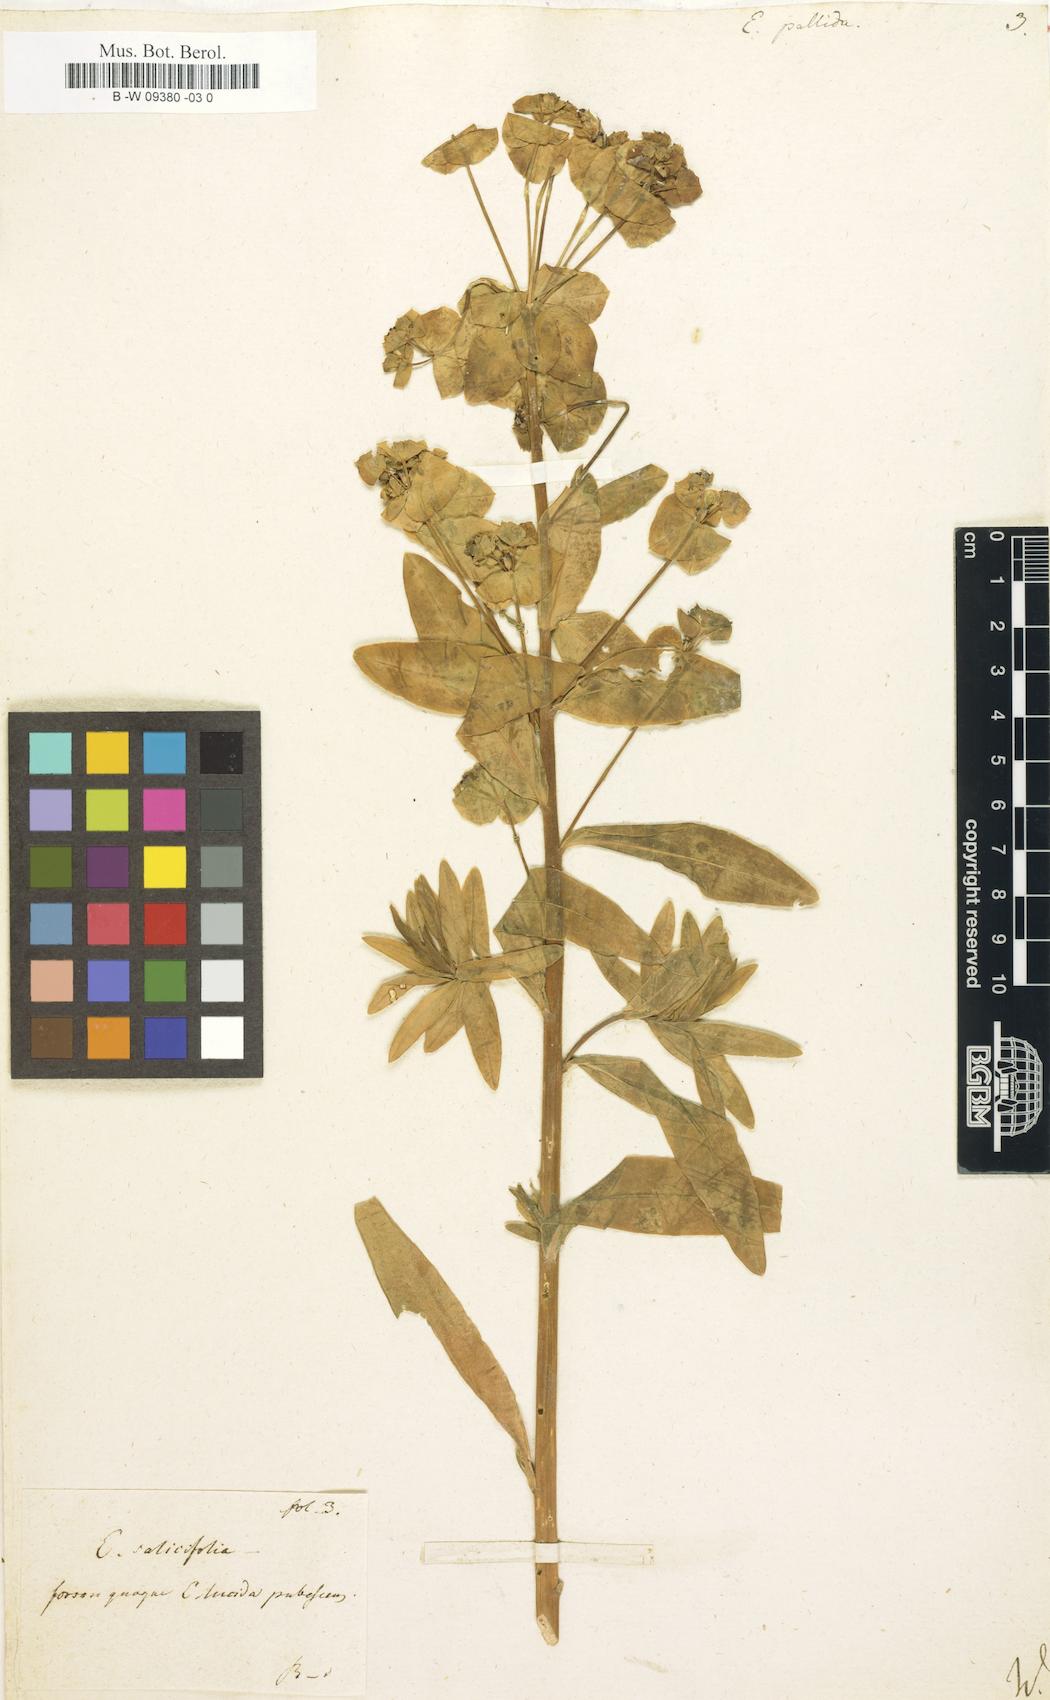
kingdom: Plantae
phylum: Tracheophyta
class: Magnoliopsida
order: Malpighiales
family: Euphorbiaceae
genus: Euphorbia
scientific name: Euphorbia salicifolia
